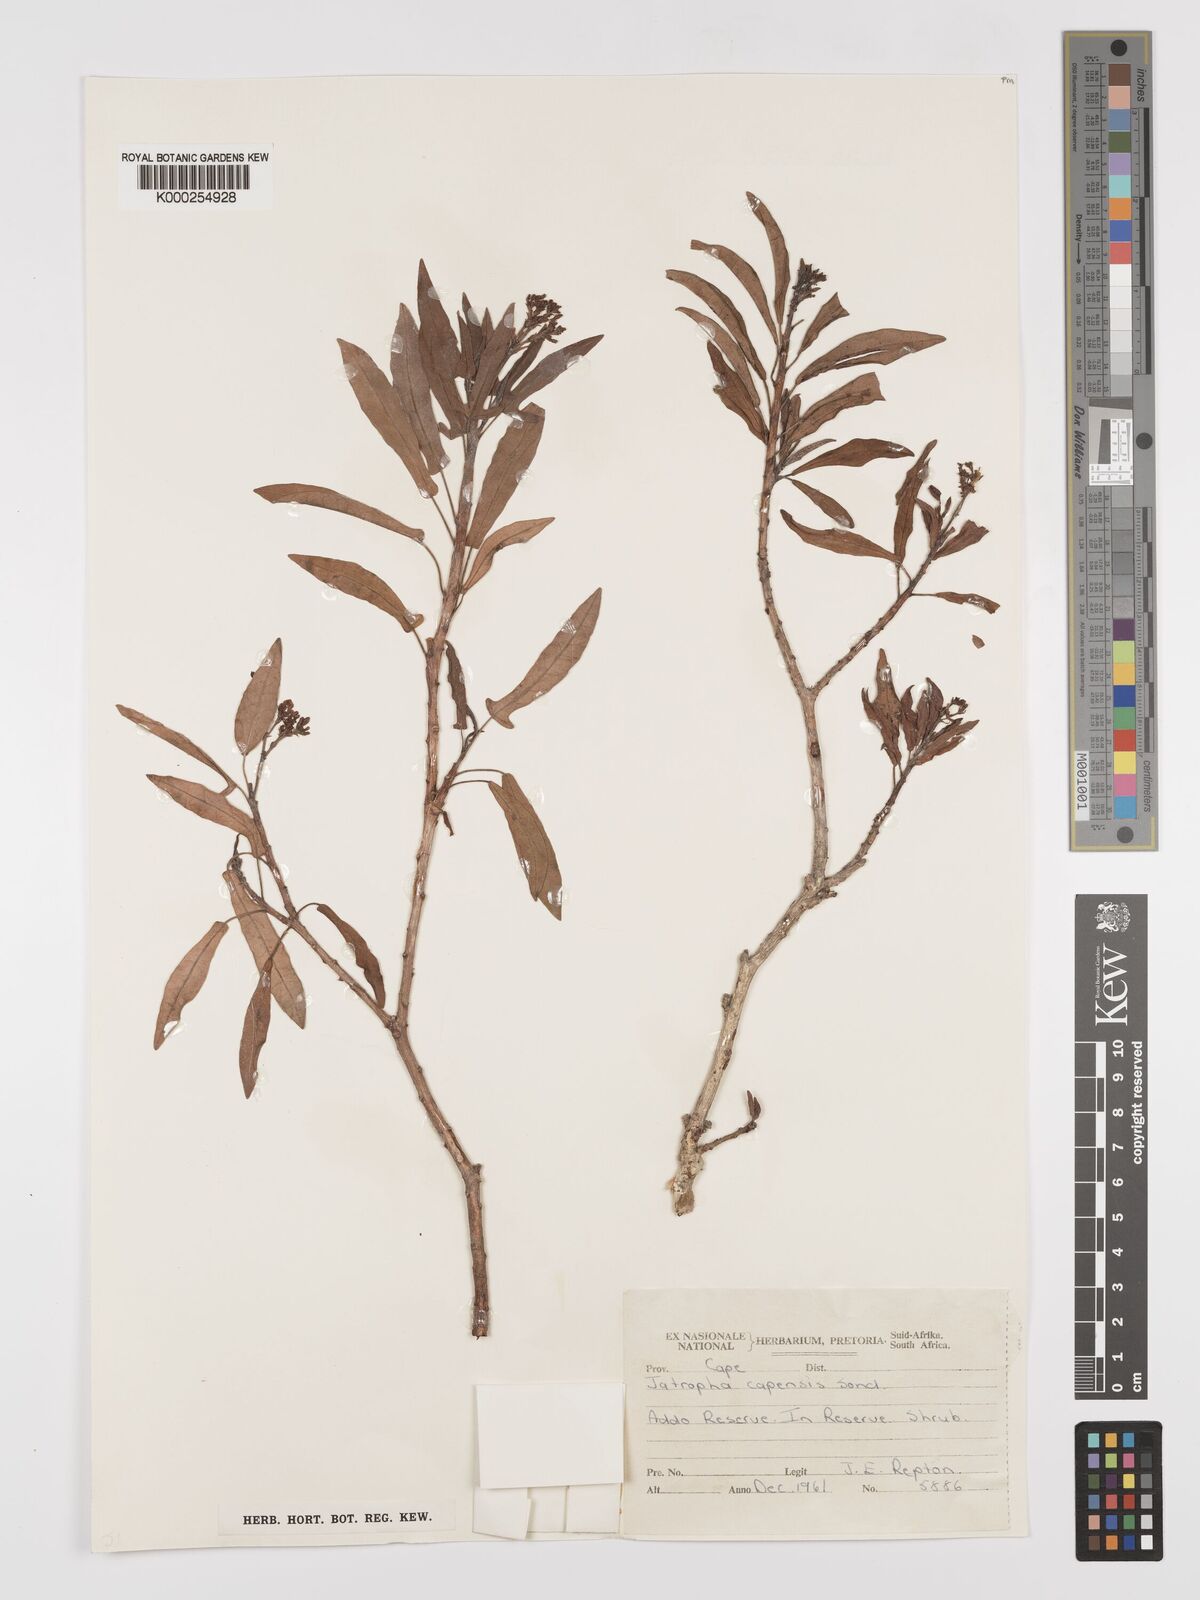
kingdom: Plantae
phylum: Tracheophyta
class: Magnoliopsida
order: Malpighiales
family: Euphorbiaceae
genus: Jatropha
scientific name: Jatropha capensis
